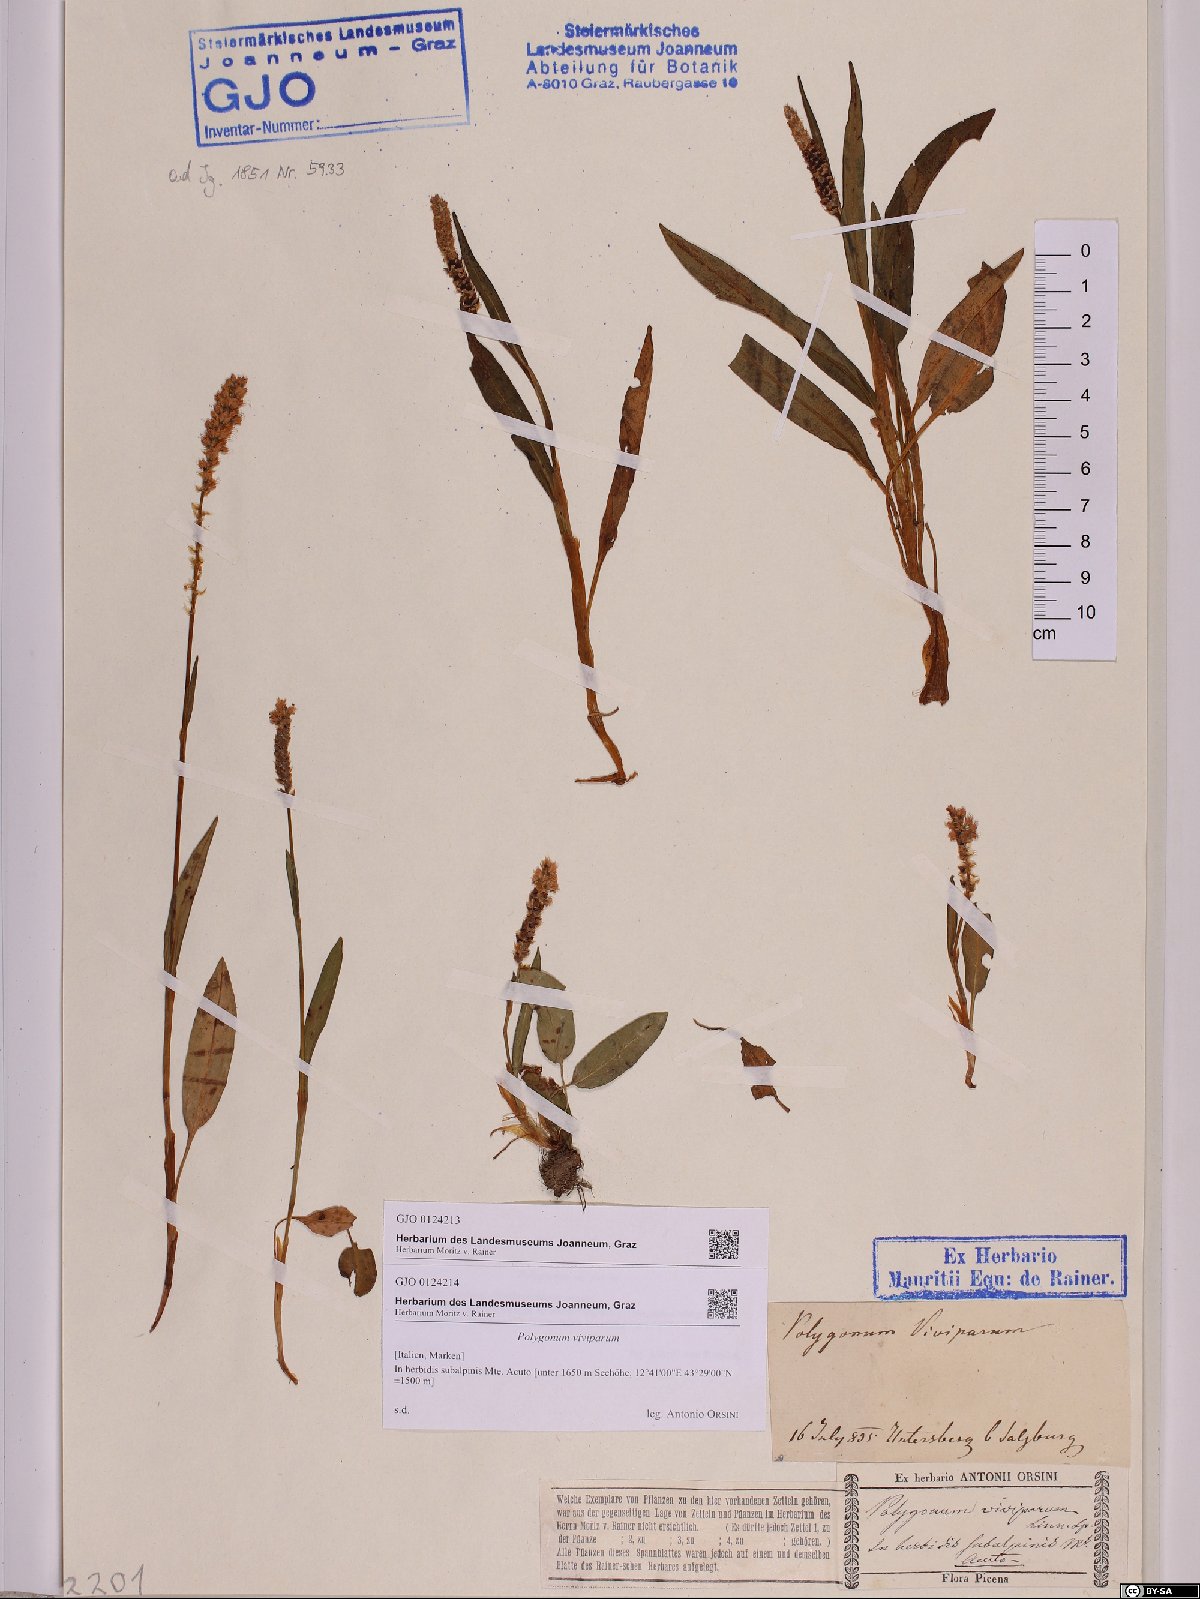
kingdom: Plantae
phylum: Tracheophyta
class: Magnoliopsida
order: Caryophyllales
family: Polygonaceae
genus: Bistorta
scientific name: Bistorta vivipara
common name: Alpine bistort
